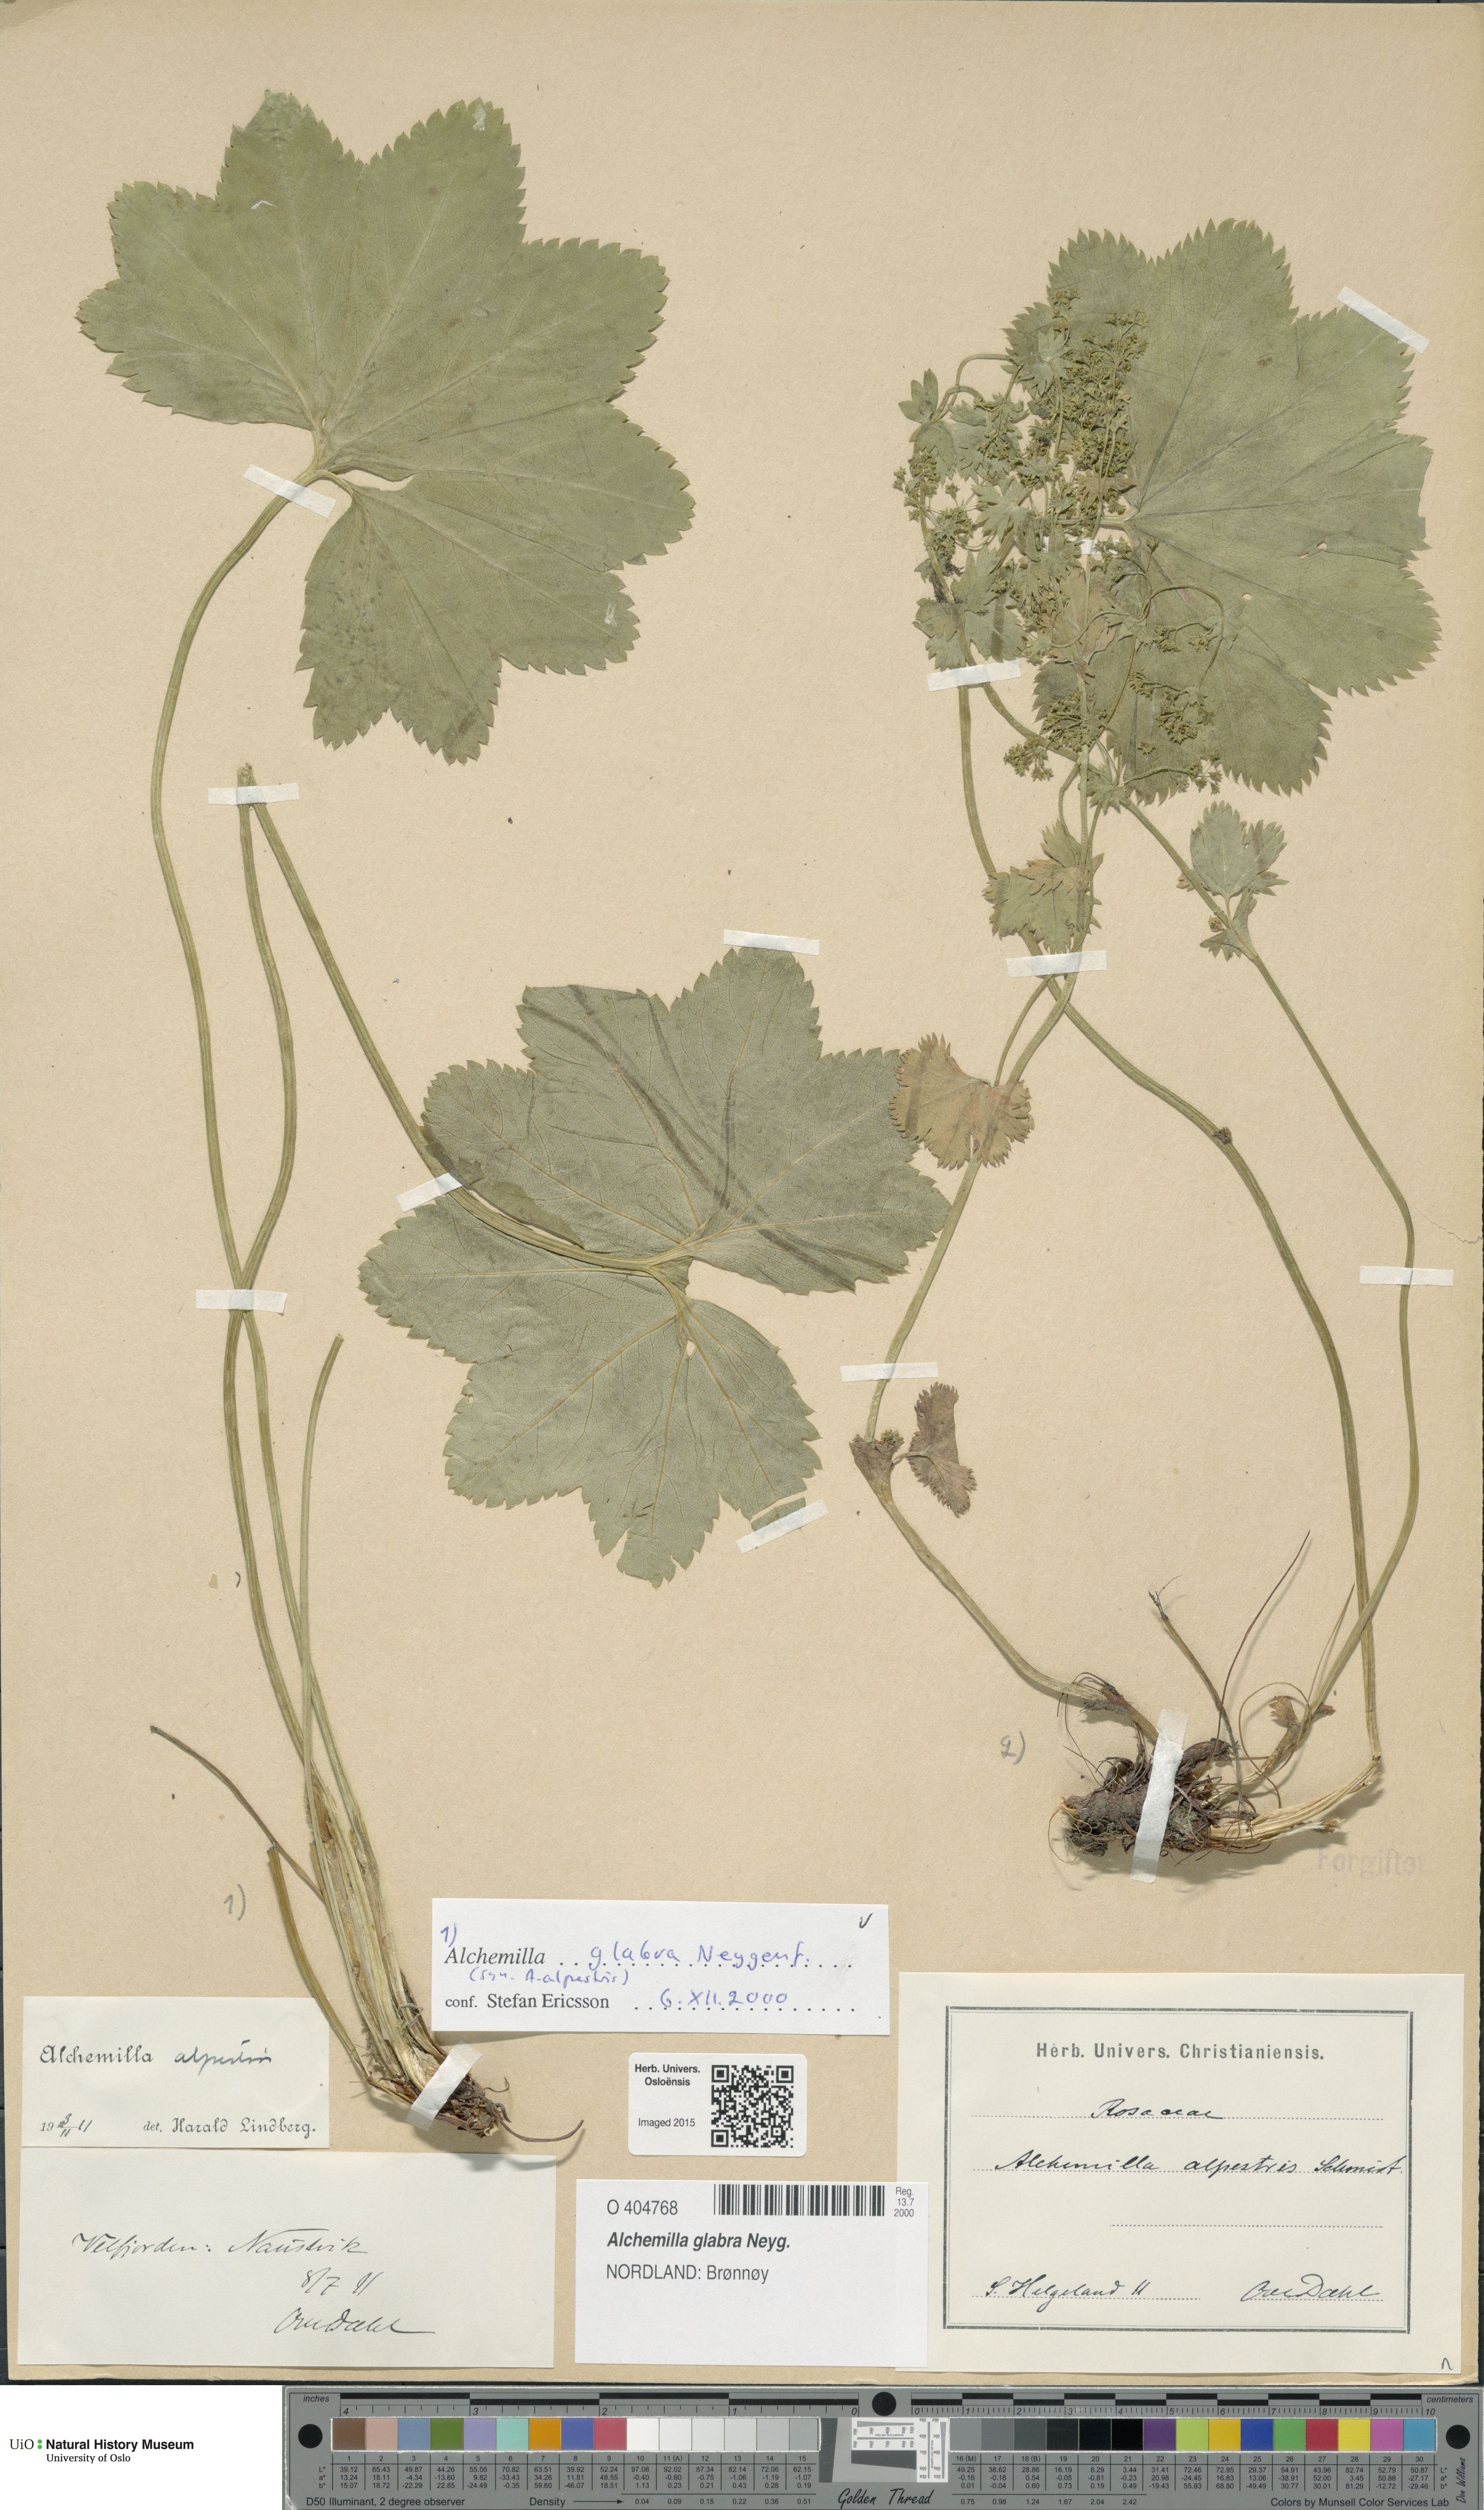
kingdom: Plantae
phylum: Tracheophyta
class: Magnoliopsida
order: Rosales
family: Rosaceae
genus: Alchemilla
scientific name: Alchemilla glabra
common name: Smooth lady's-mantle
